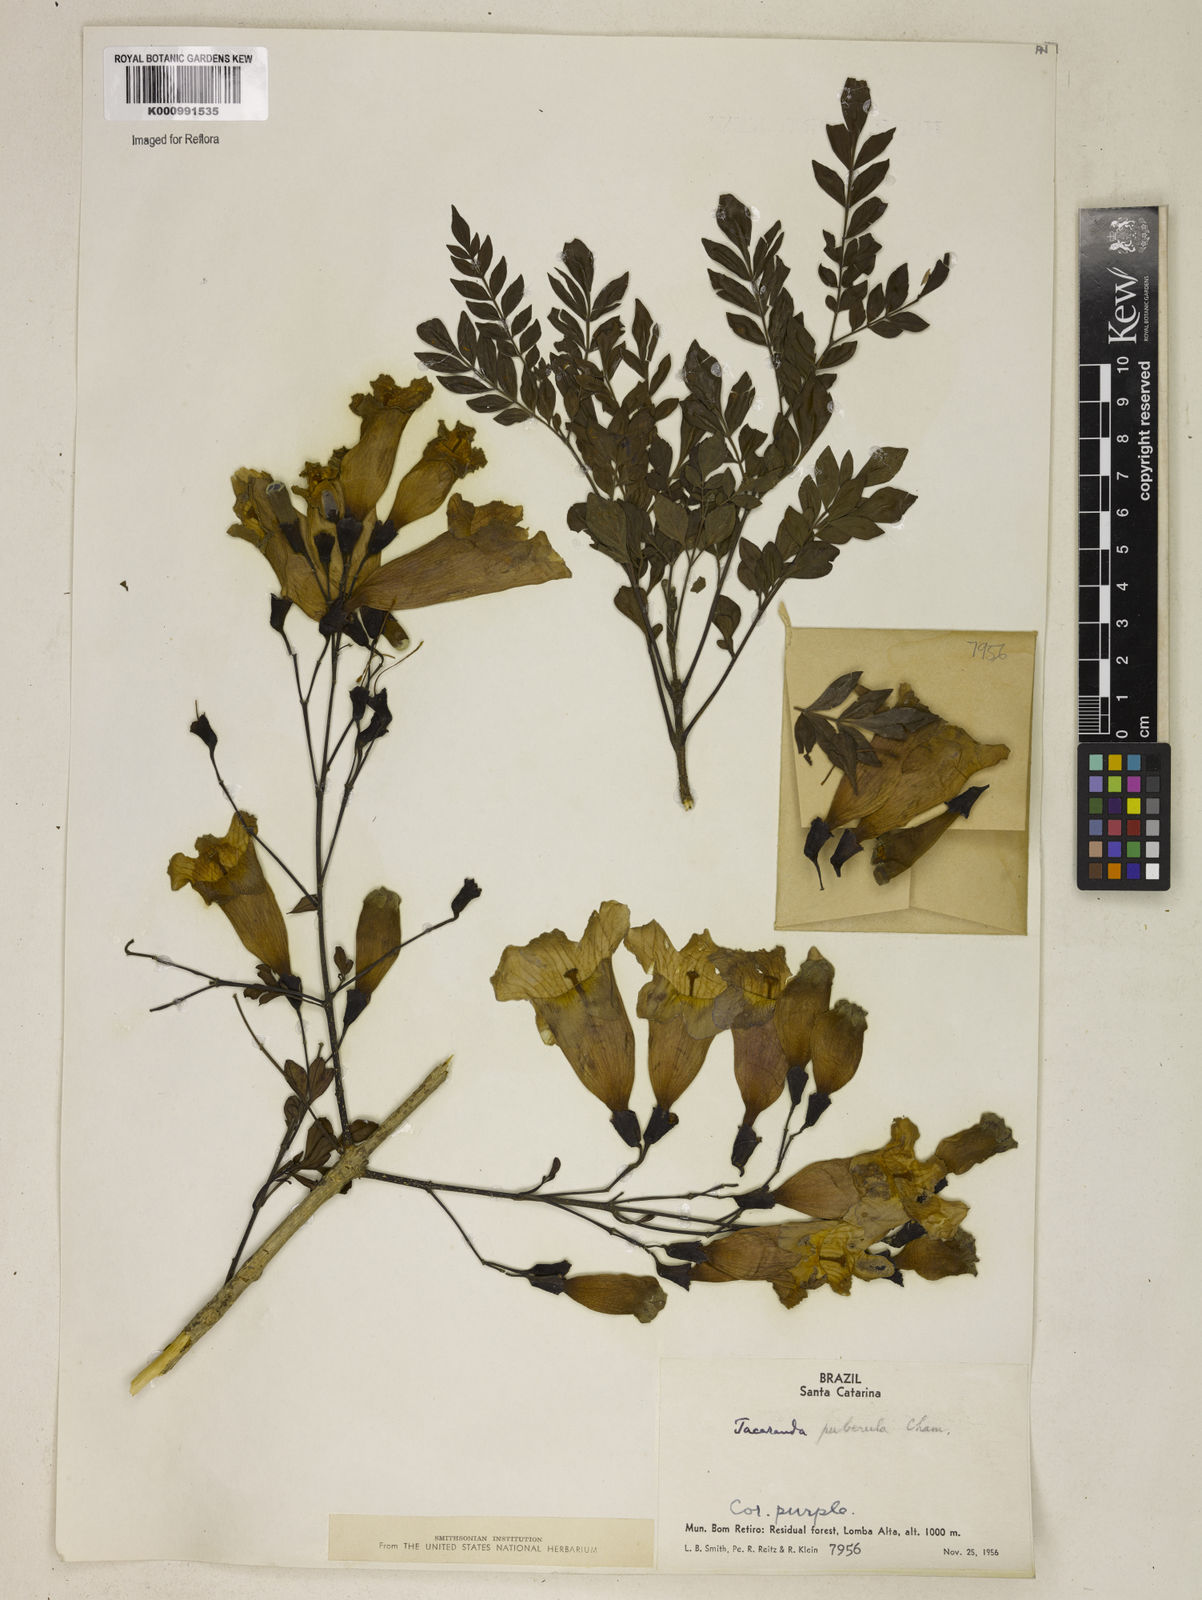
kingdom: Plantae
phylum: Tracheophyta
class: Magnoliopsida
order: Lamiales
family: Bignoniaceae
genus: Jacaranda
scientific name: Jacaranda puberula
